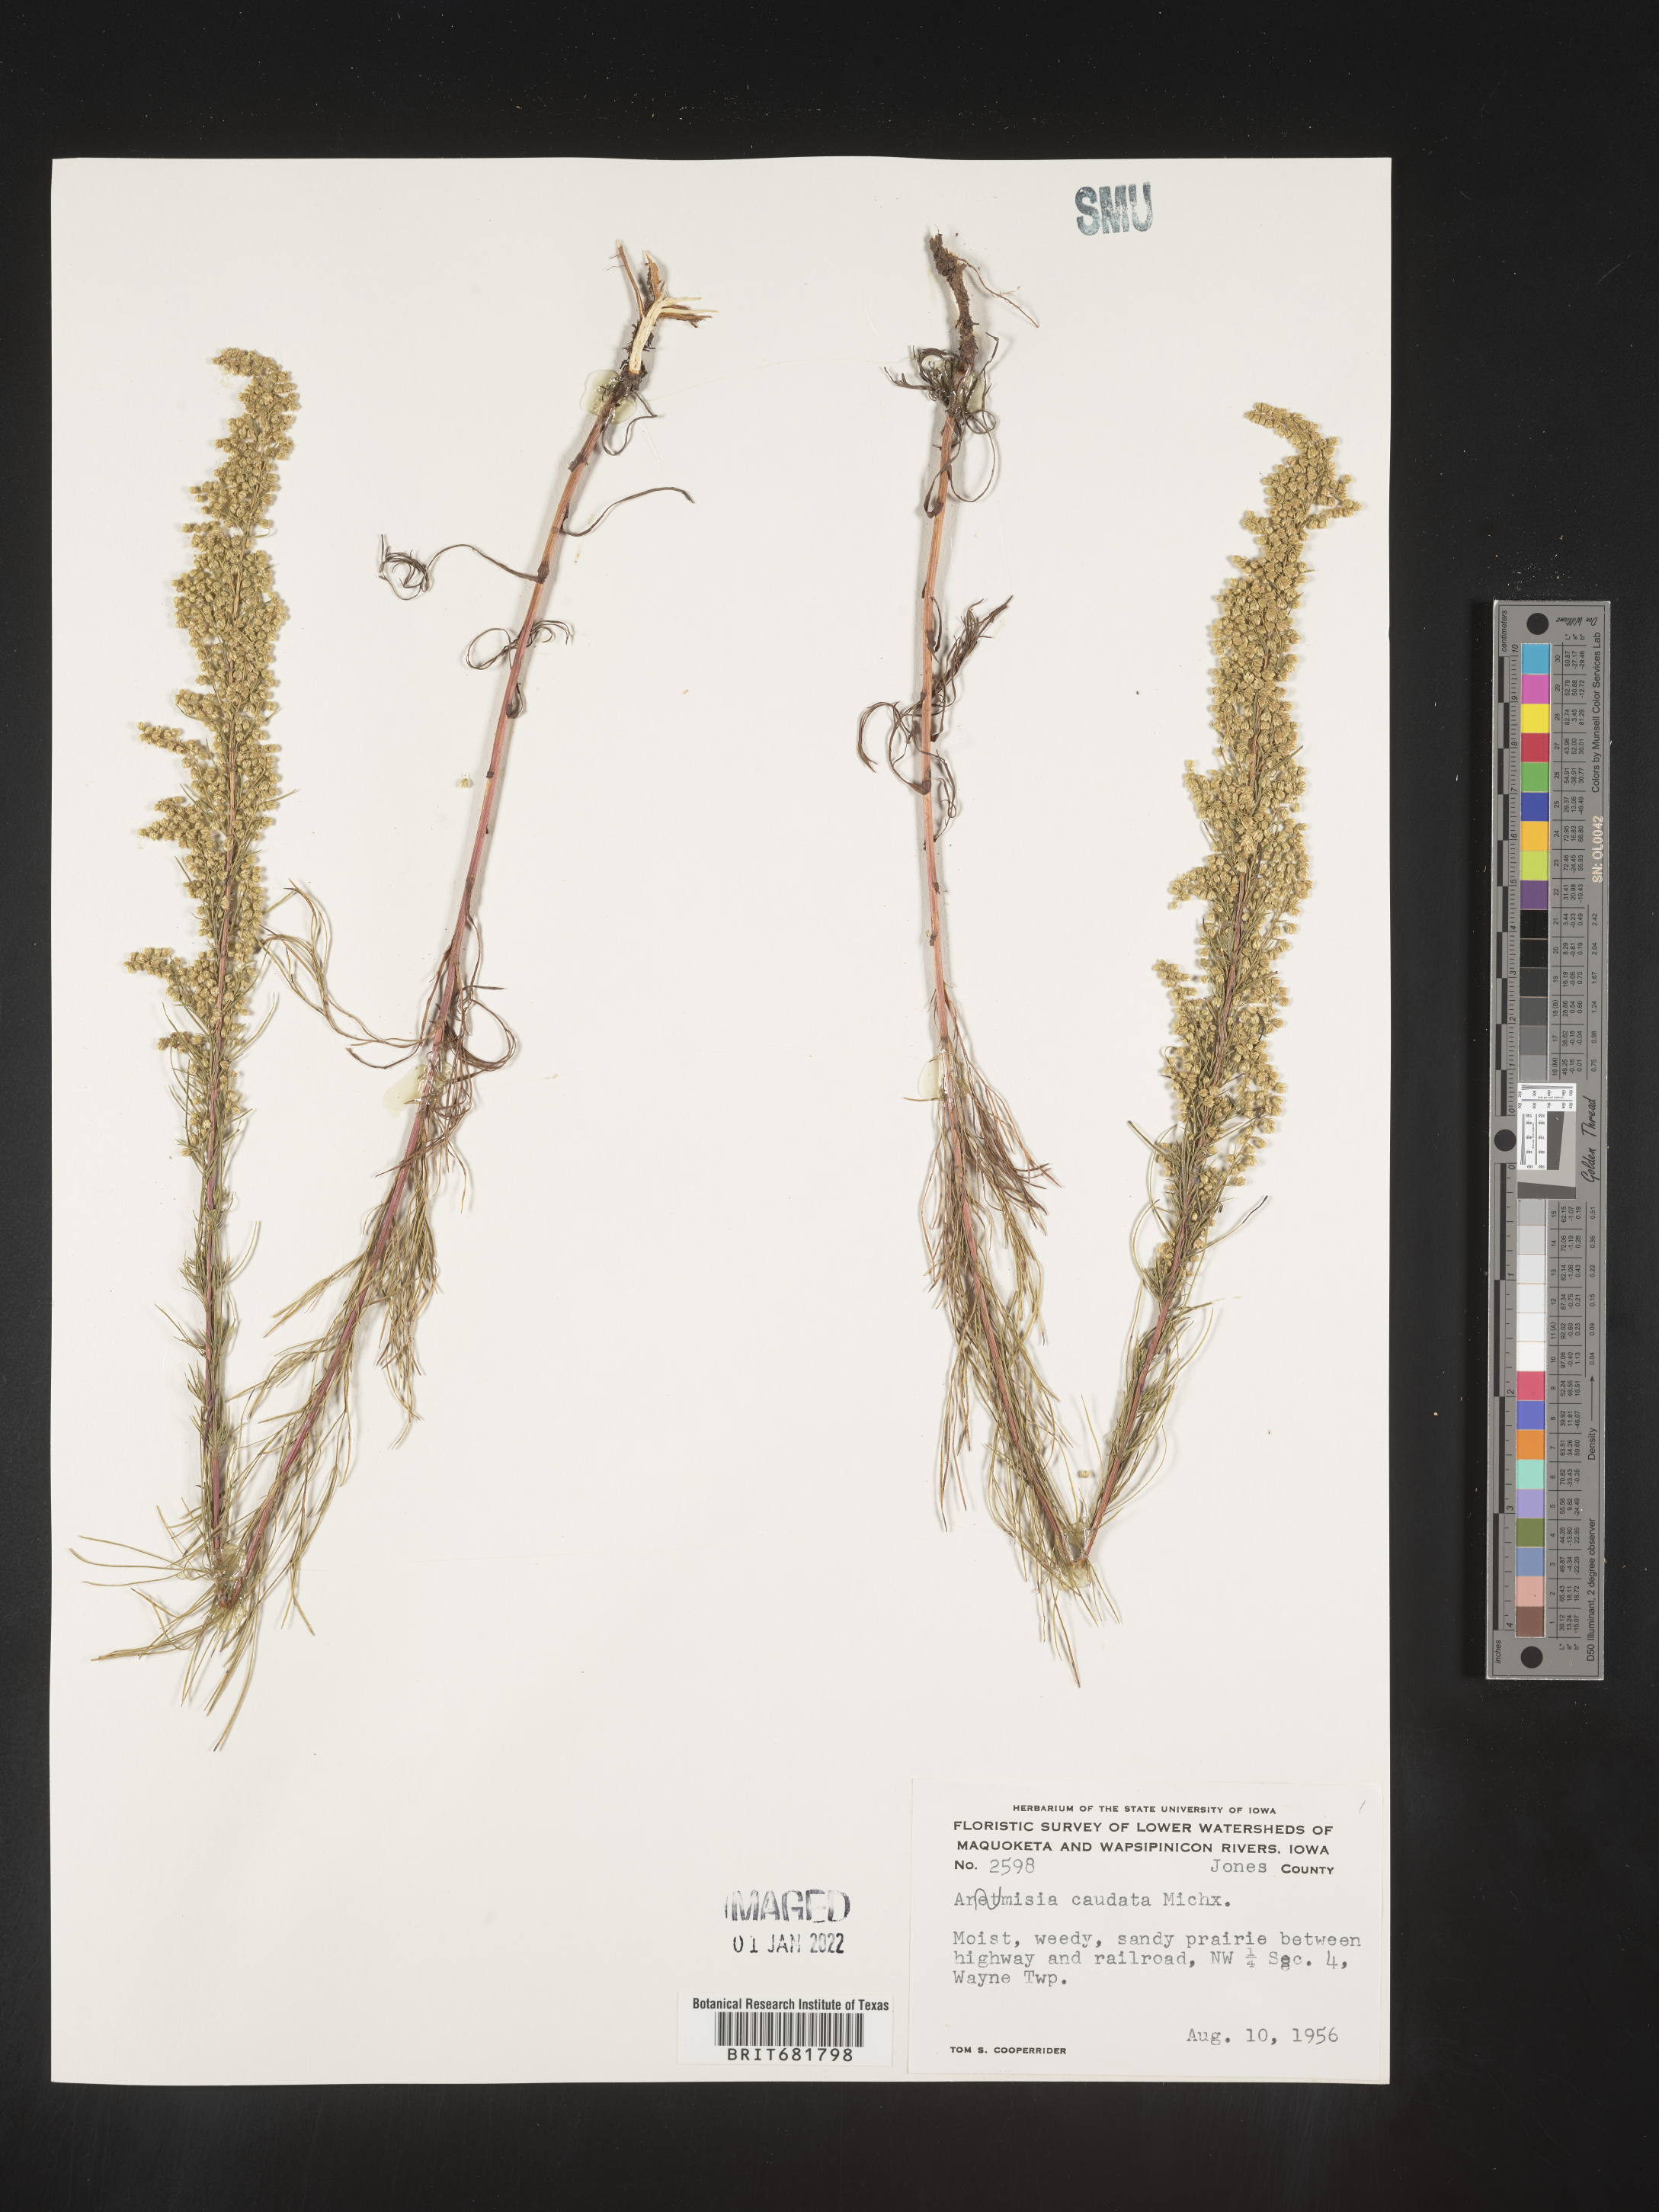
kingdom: Plantae
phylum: Tracheophyta
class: Magnoliopsida
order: Asterales
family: Asteraceae
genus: Artemisia
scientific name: Artemisia campestris
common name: Field wormwood
